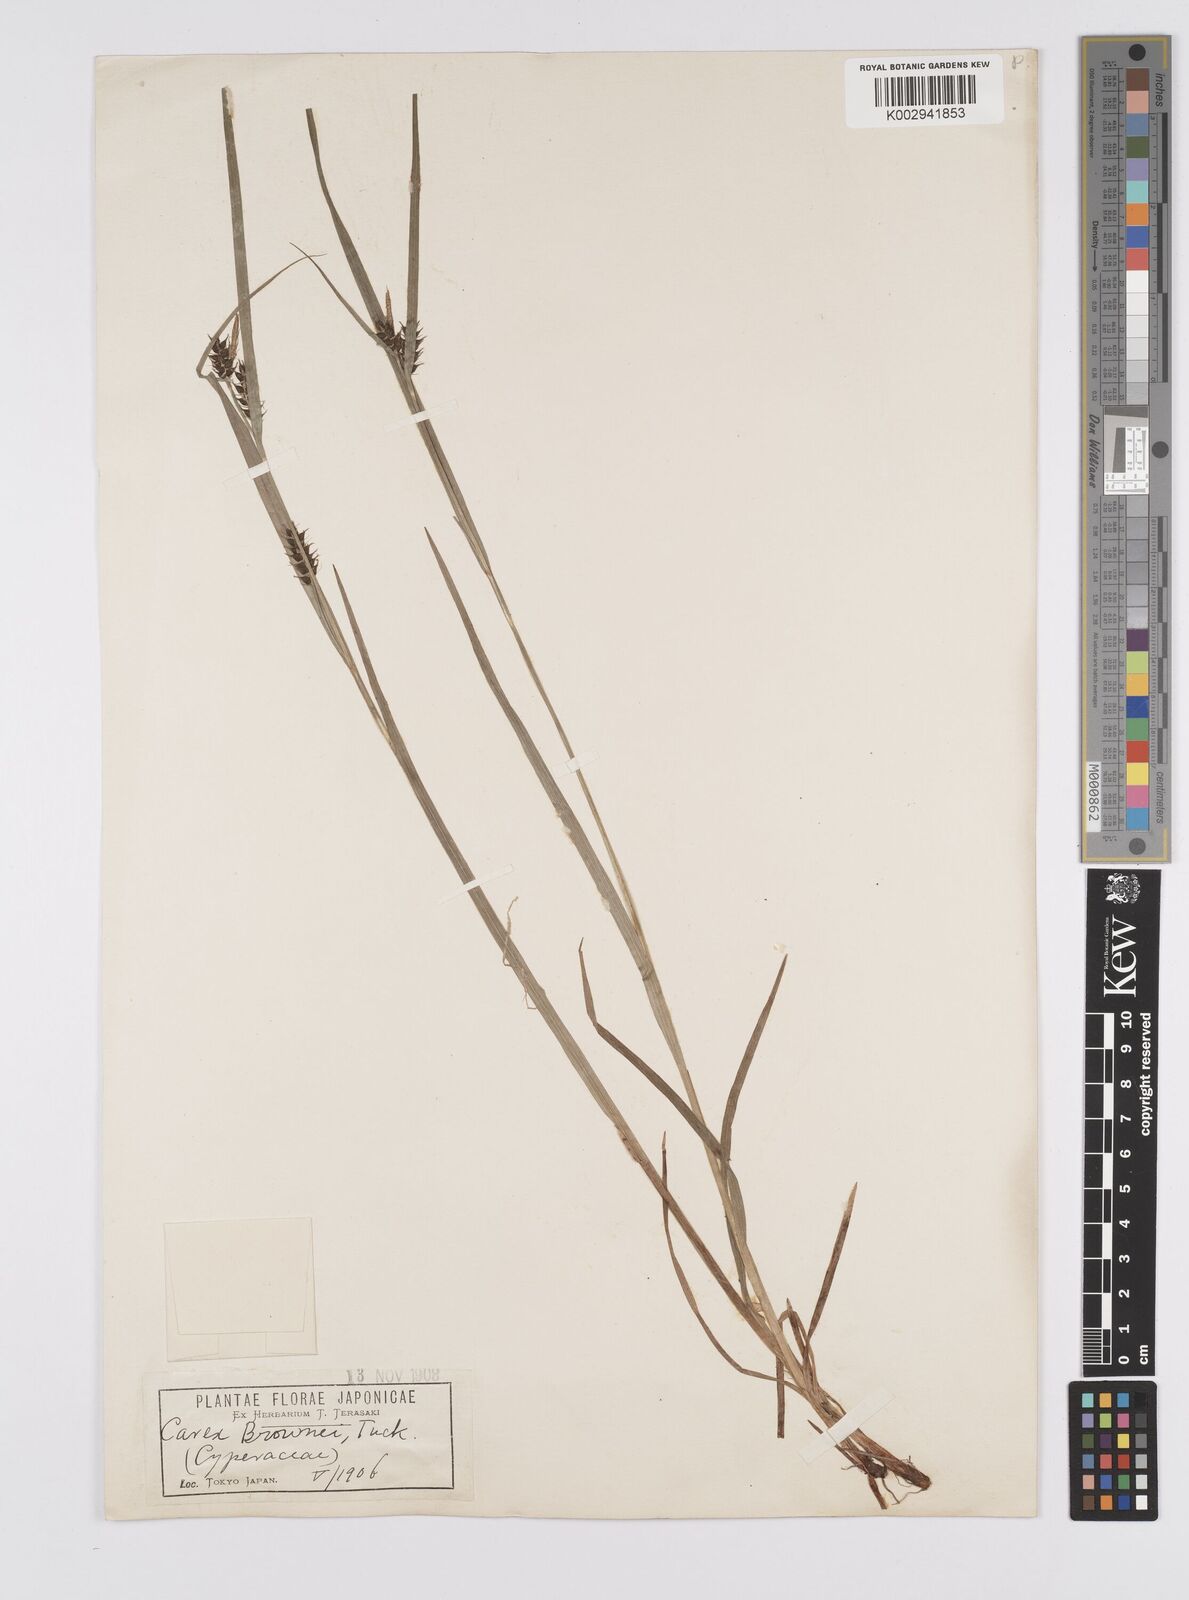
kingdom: Plantae
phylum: Tracheophyta
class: Liliopsida
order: Poales
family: Cyperaceae
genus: Carex
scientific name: Carex brownii
